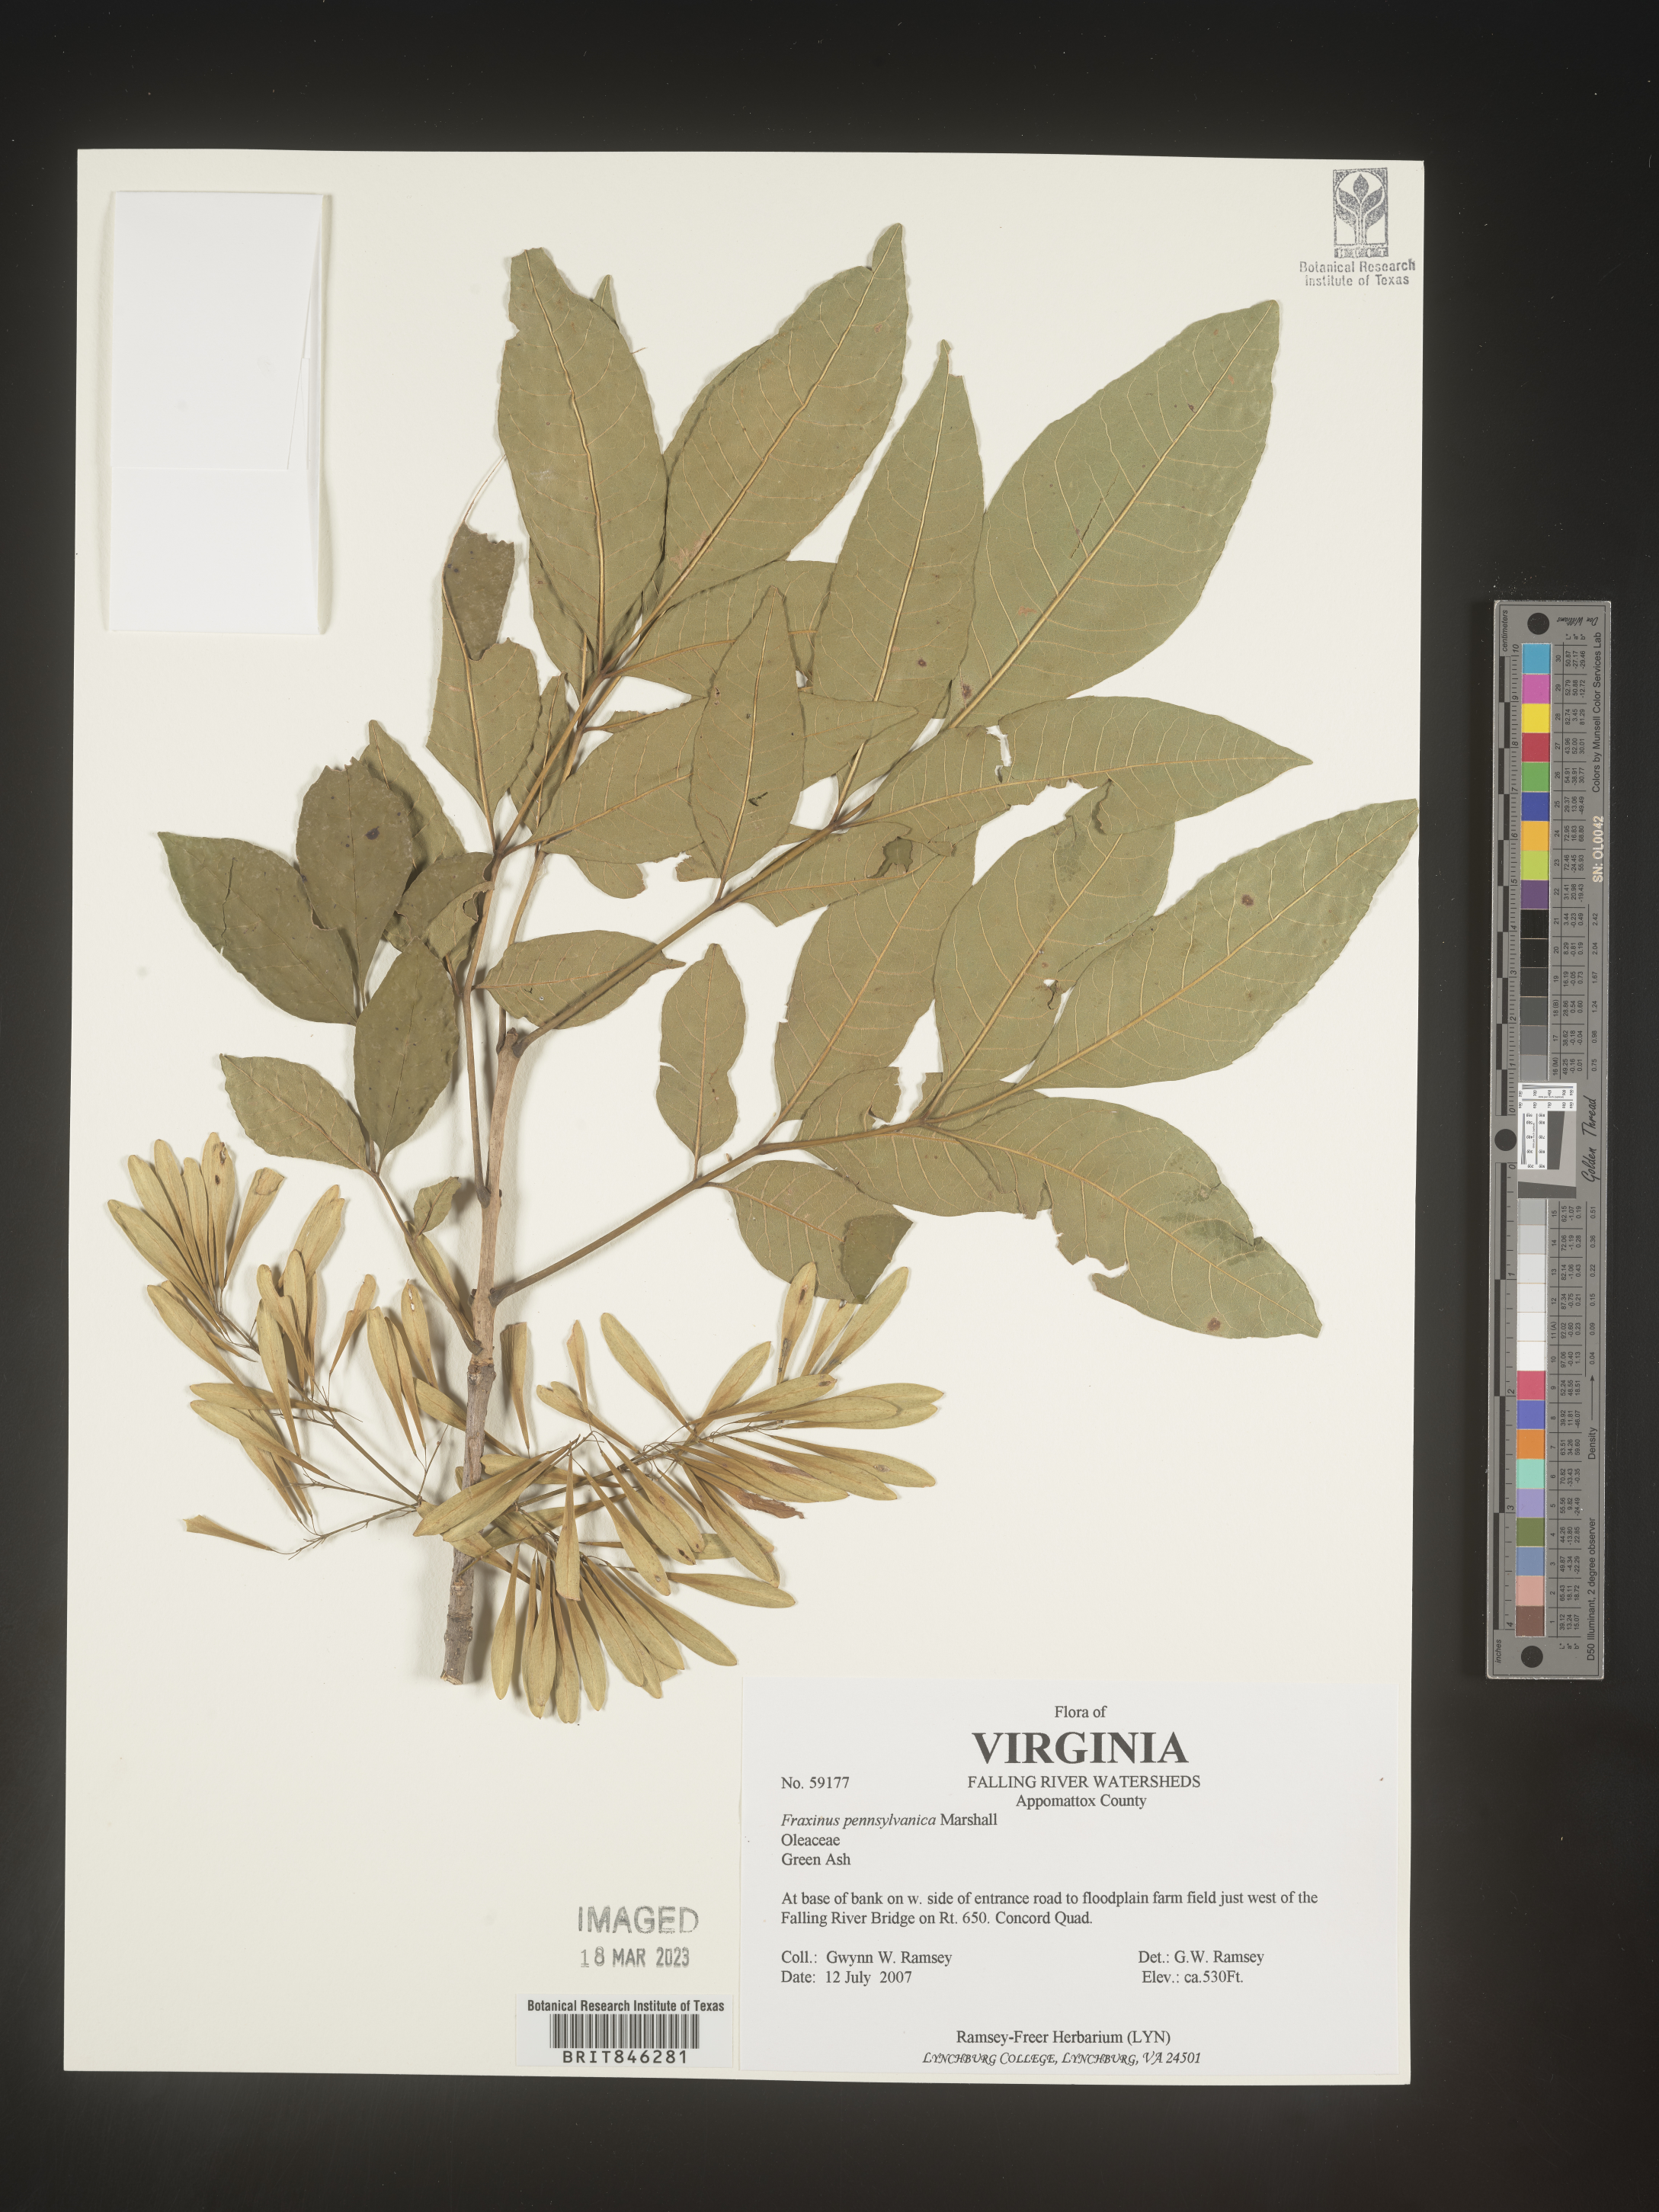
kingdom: Plantae
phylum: Tracheophyta
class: Magnoliopsida
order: Lamiales
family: Oleaceae
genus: Fraxinus
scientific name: Fraxinus pennsylvanica
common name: Green ash
